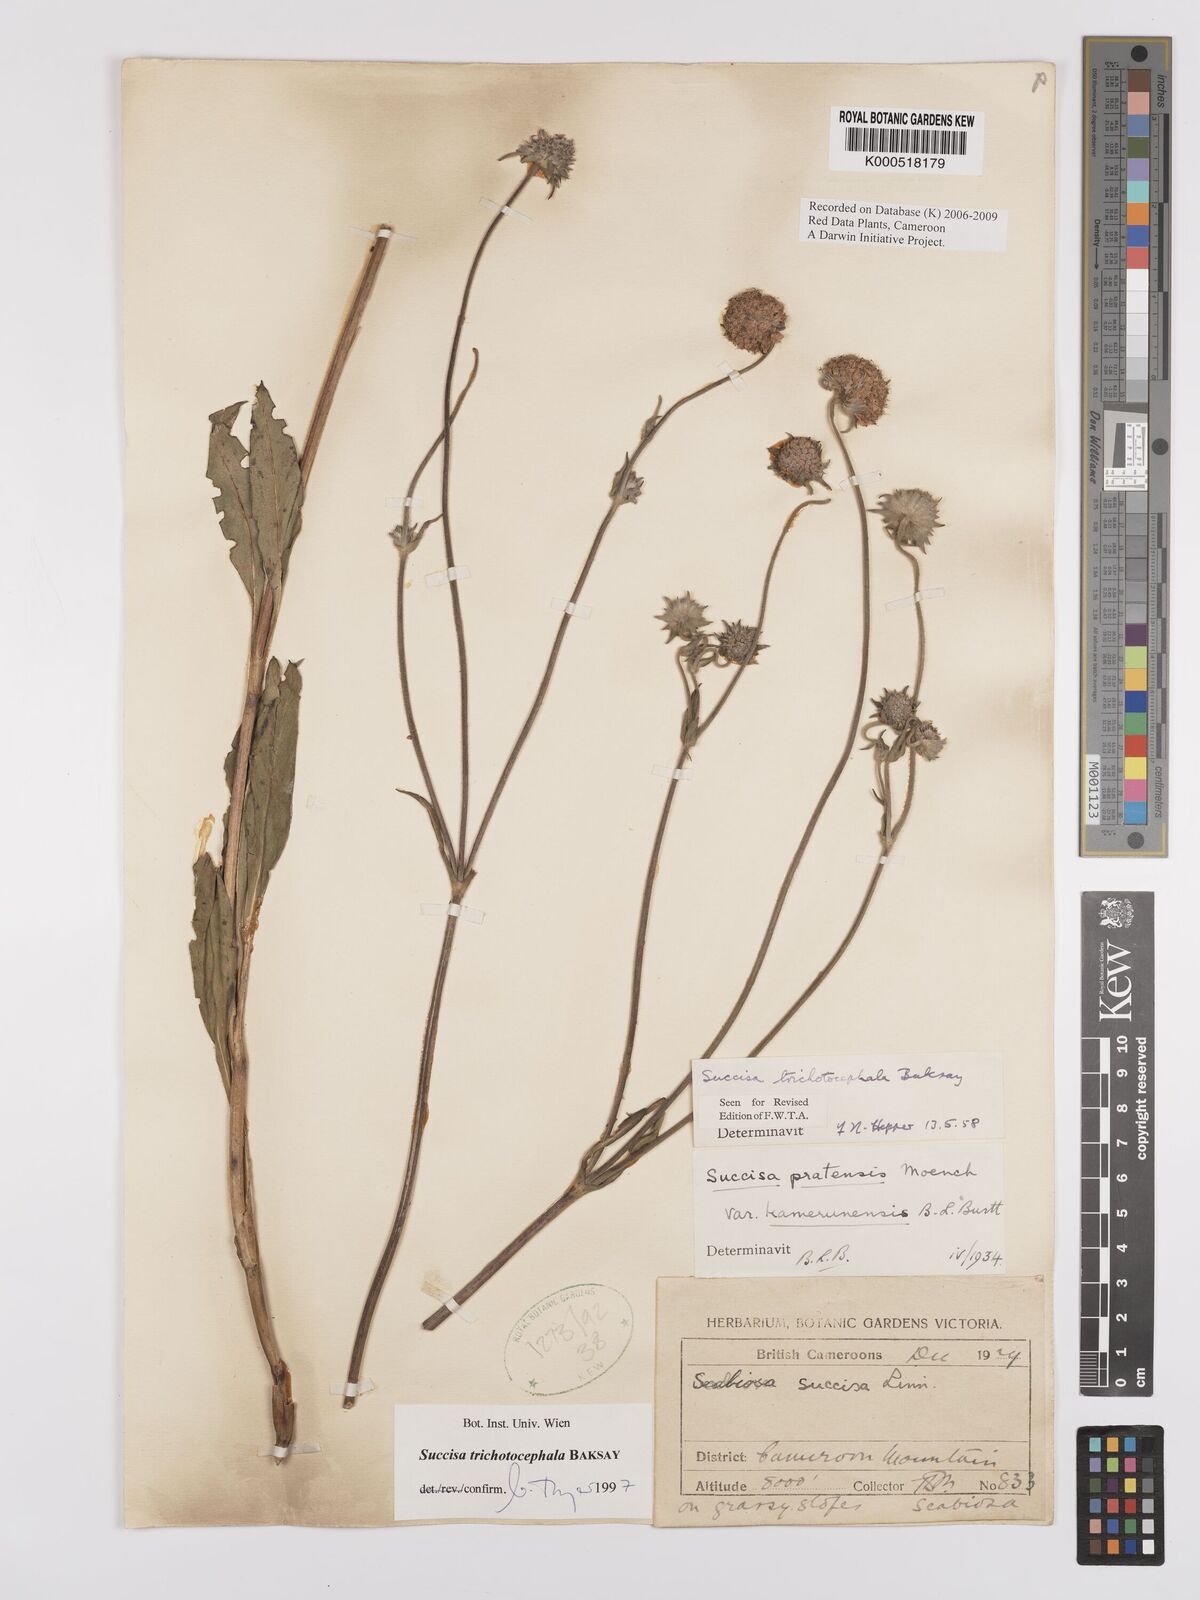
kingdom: Plantae
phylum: Tracheophyta
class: Magnoliopsida
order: Dipsacales
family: Caprifoliaceae
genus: Succisa
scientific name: Succisa trichotocephala
